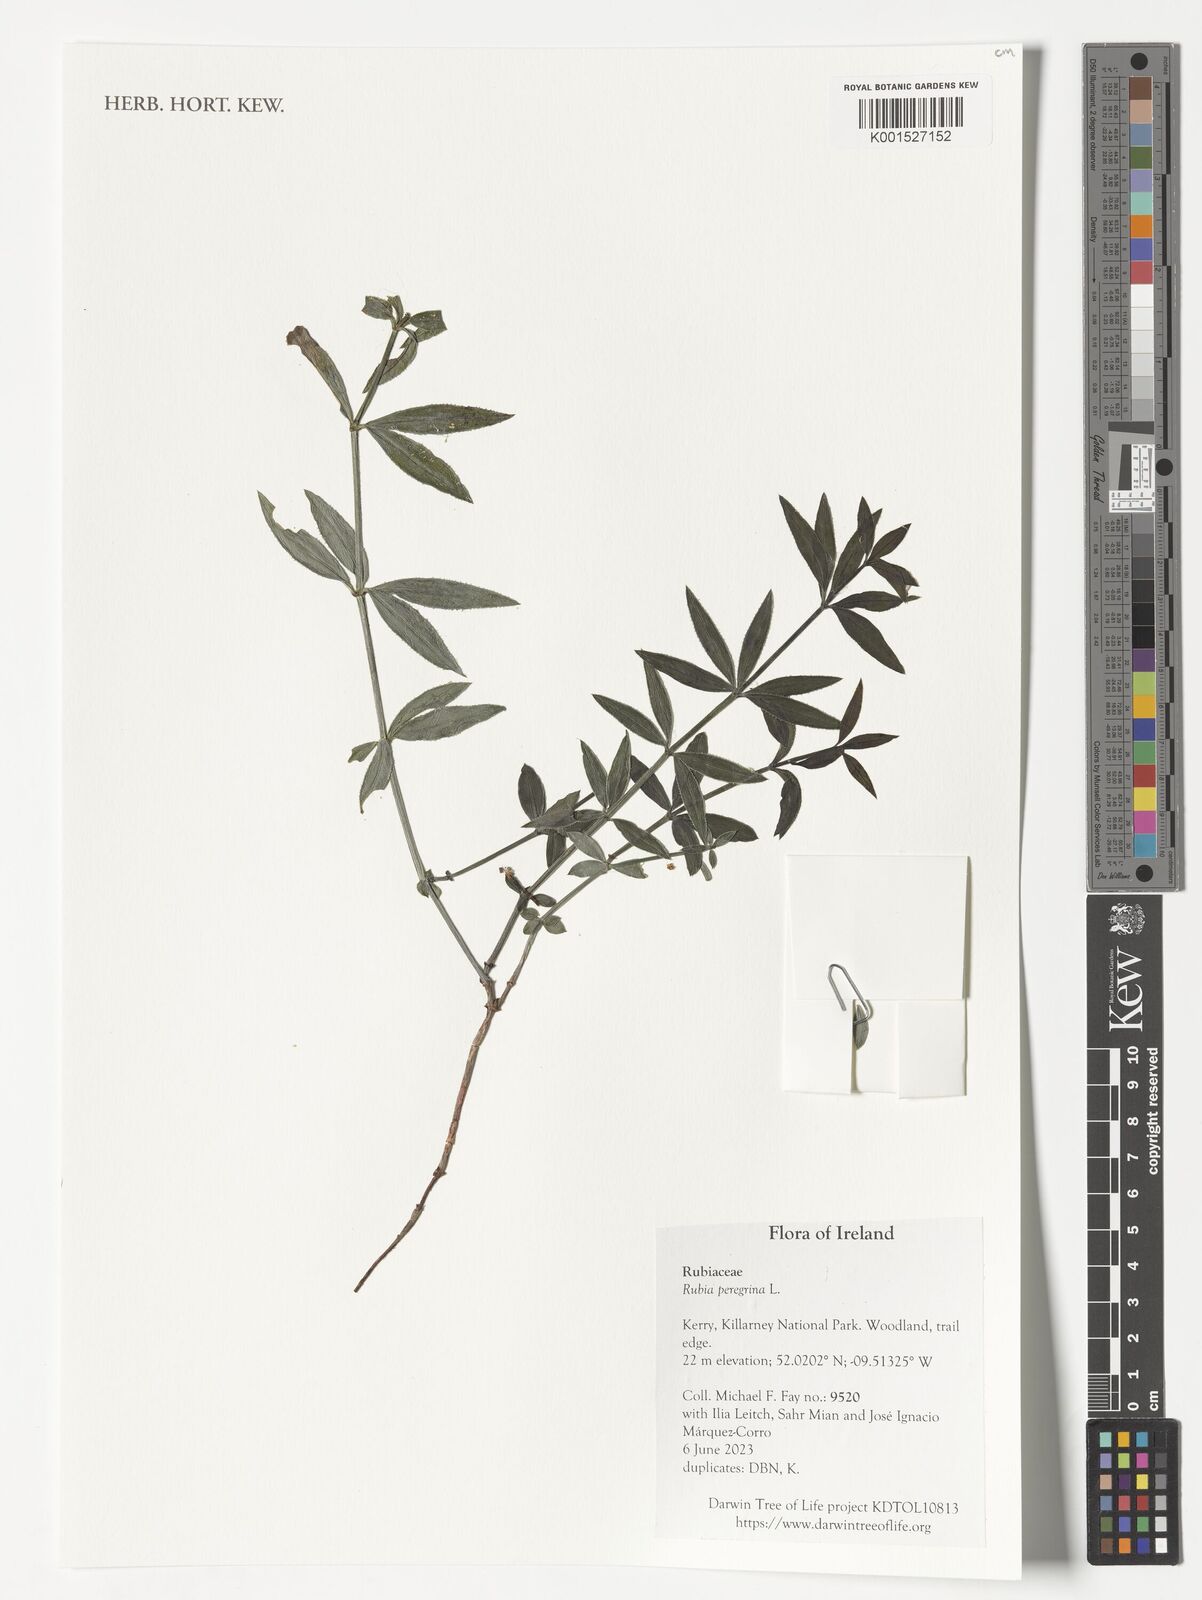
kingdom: Plantae
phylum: Tracheophyta
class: Magnoliopsida
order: Gentianales
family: Rubiaceae
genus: Rubia
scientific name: Rubia peregrina
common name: Wild madder
